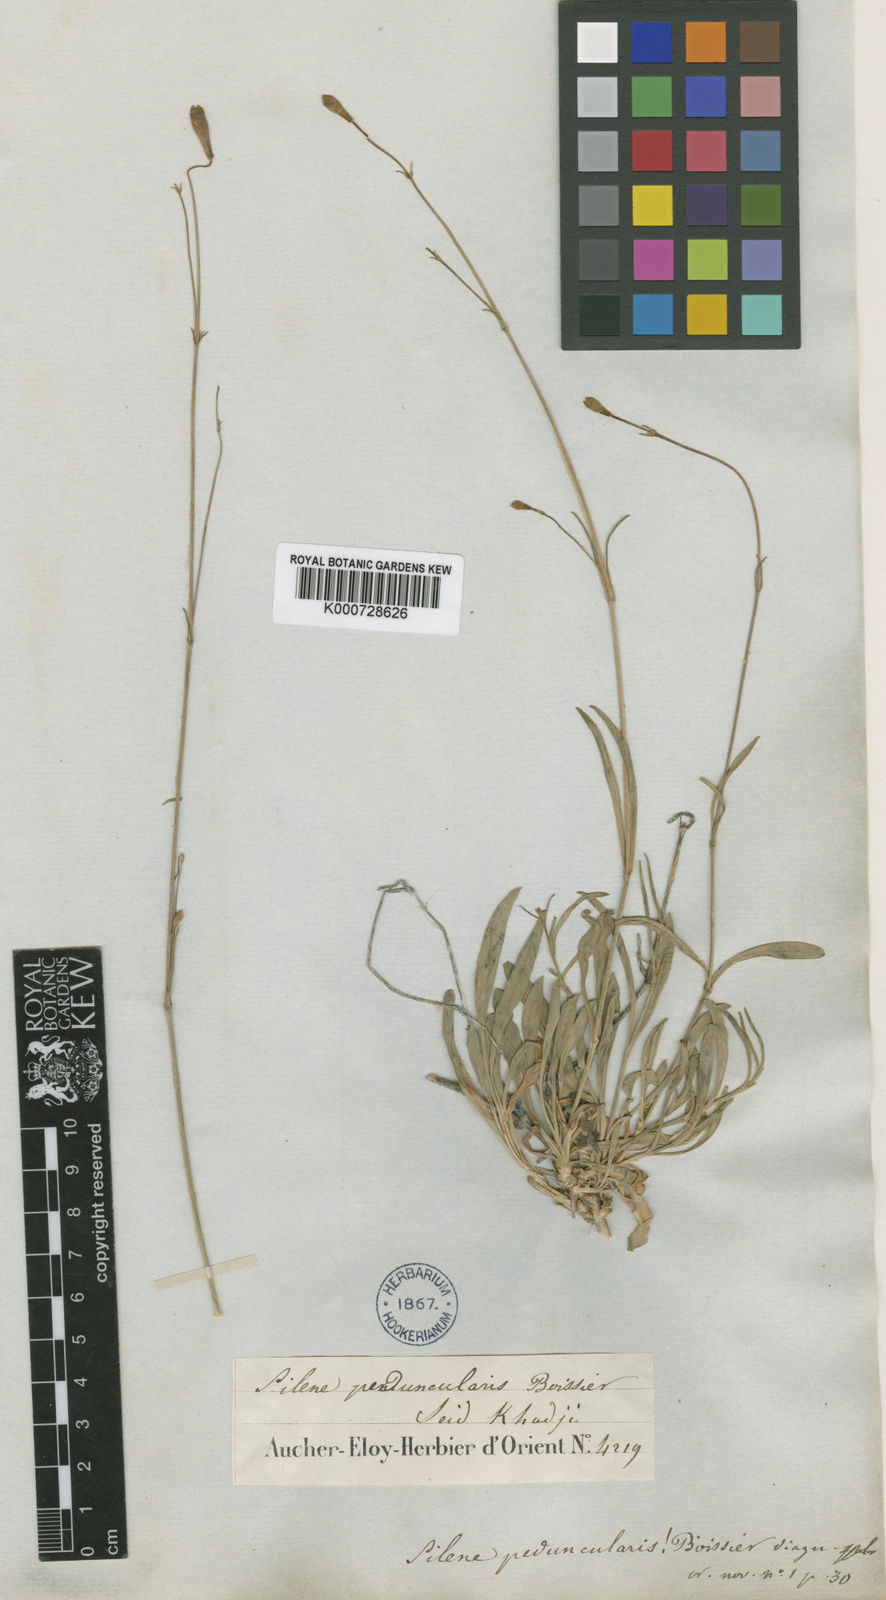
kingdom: Plantae
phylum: Tracheophyta
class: Magnoliopsida
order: Caryophyllales
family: Caryophyllaceae
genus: Silene
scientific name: Silene peduncularis
